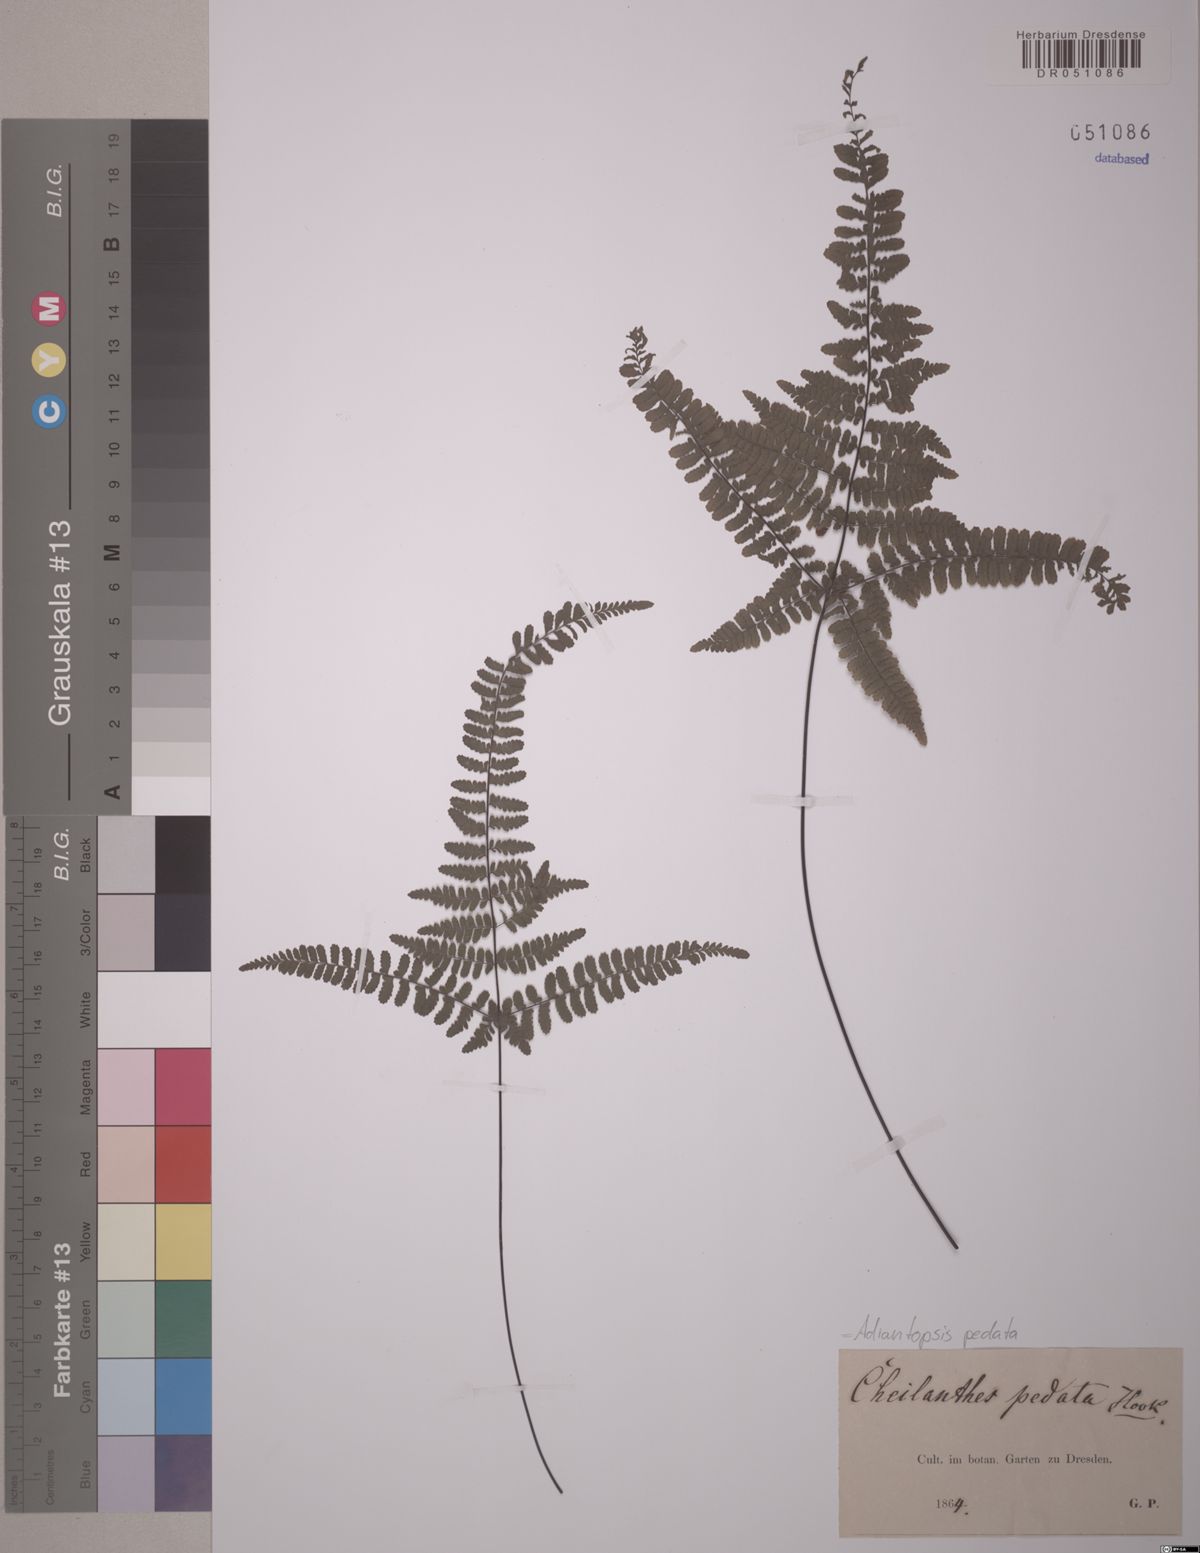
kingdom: Plantae
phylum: Tracheophyta
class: Polypodiopsida
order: Polypodiales
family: Pteridaceae
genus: Adiantopsis
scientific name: Adiantopsis pedata
